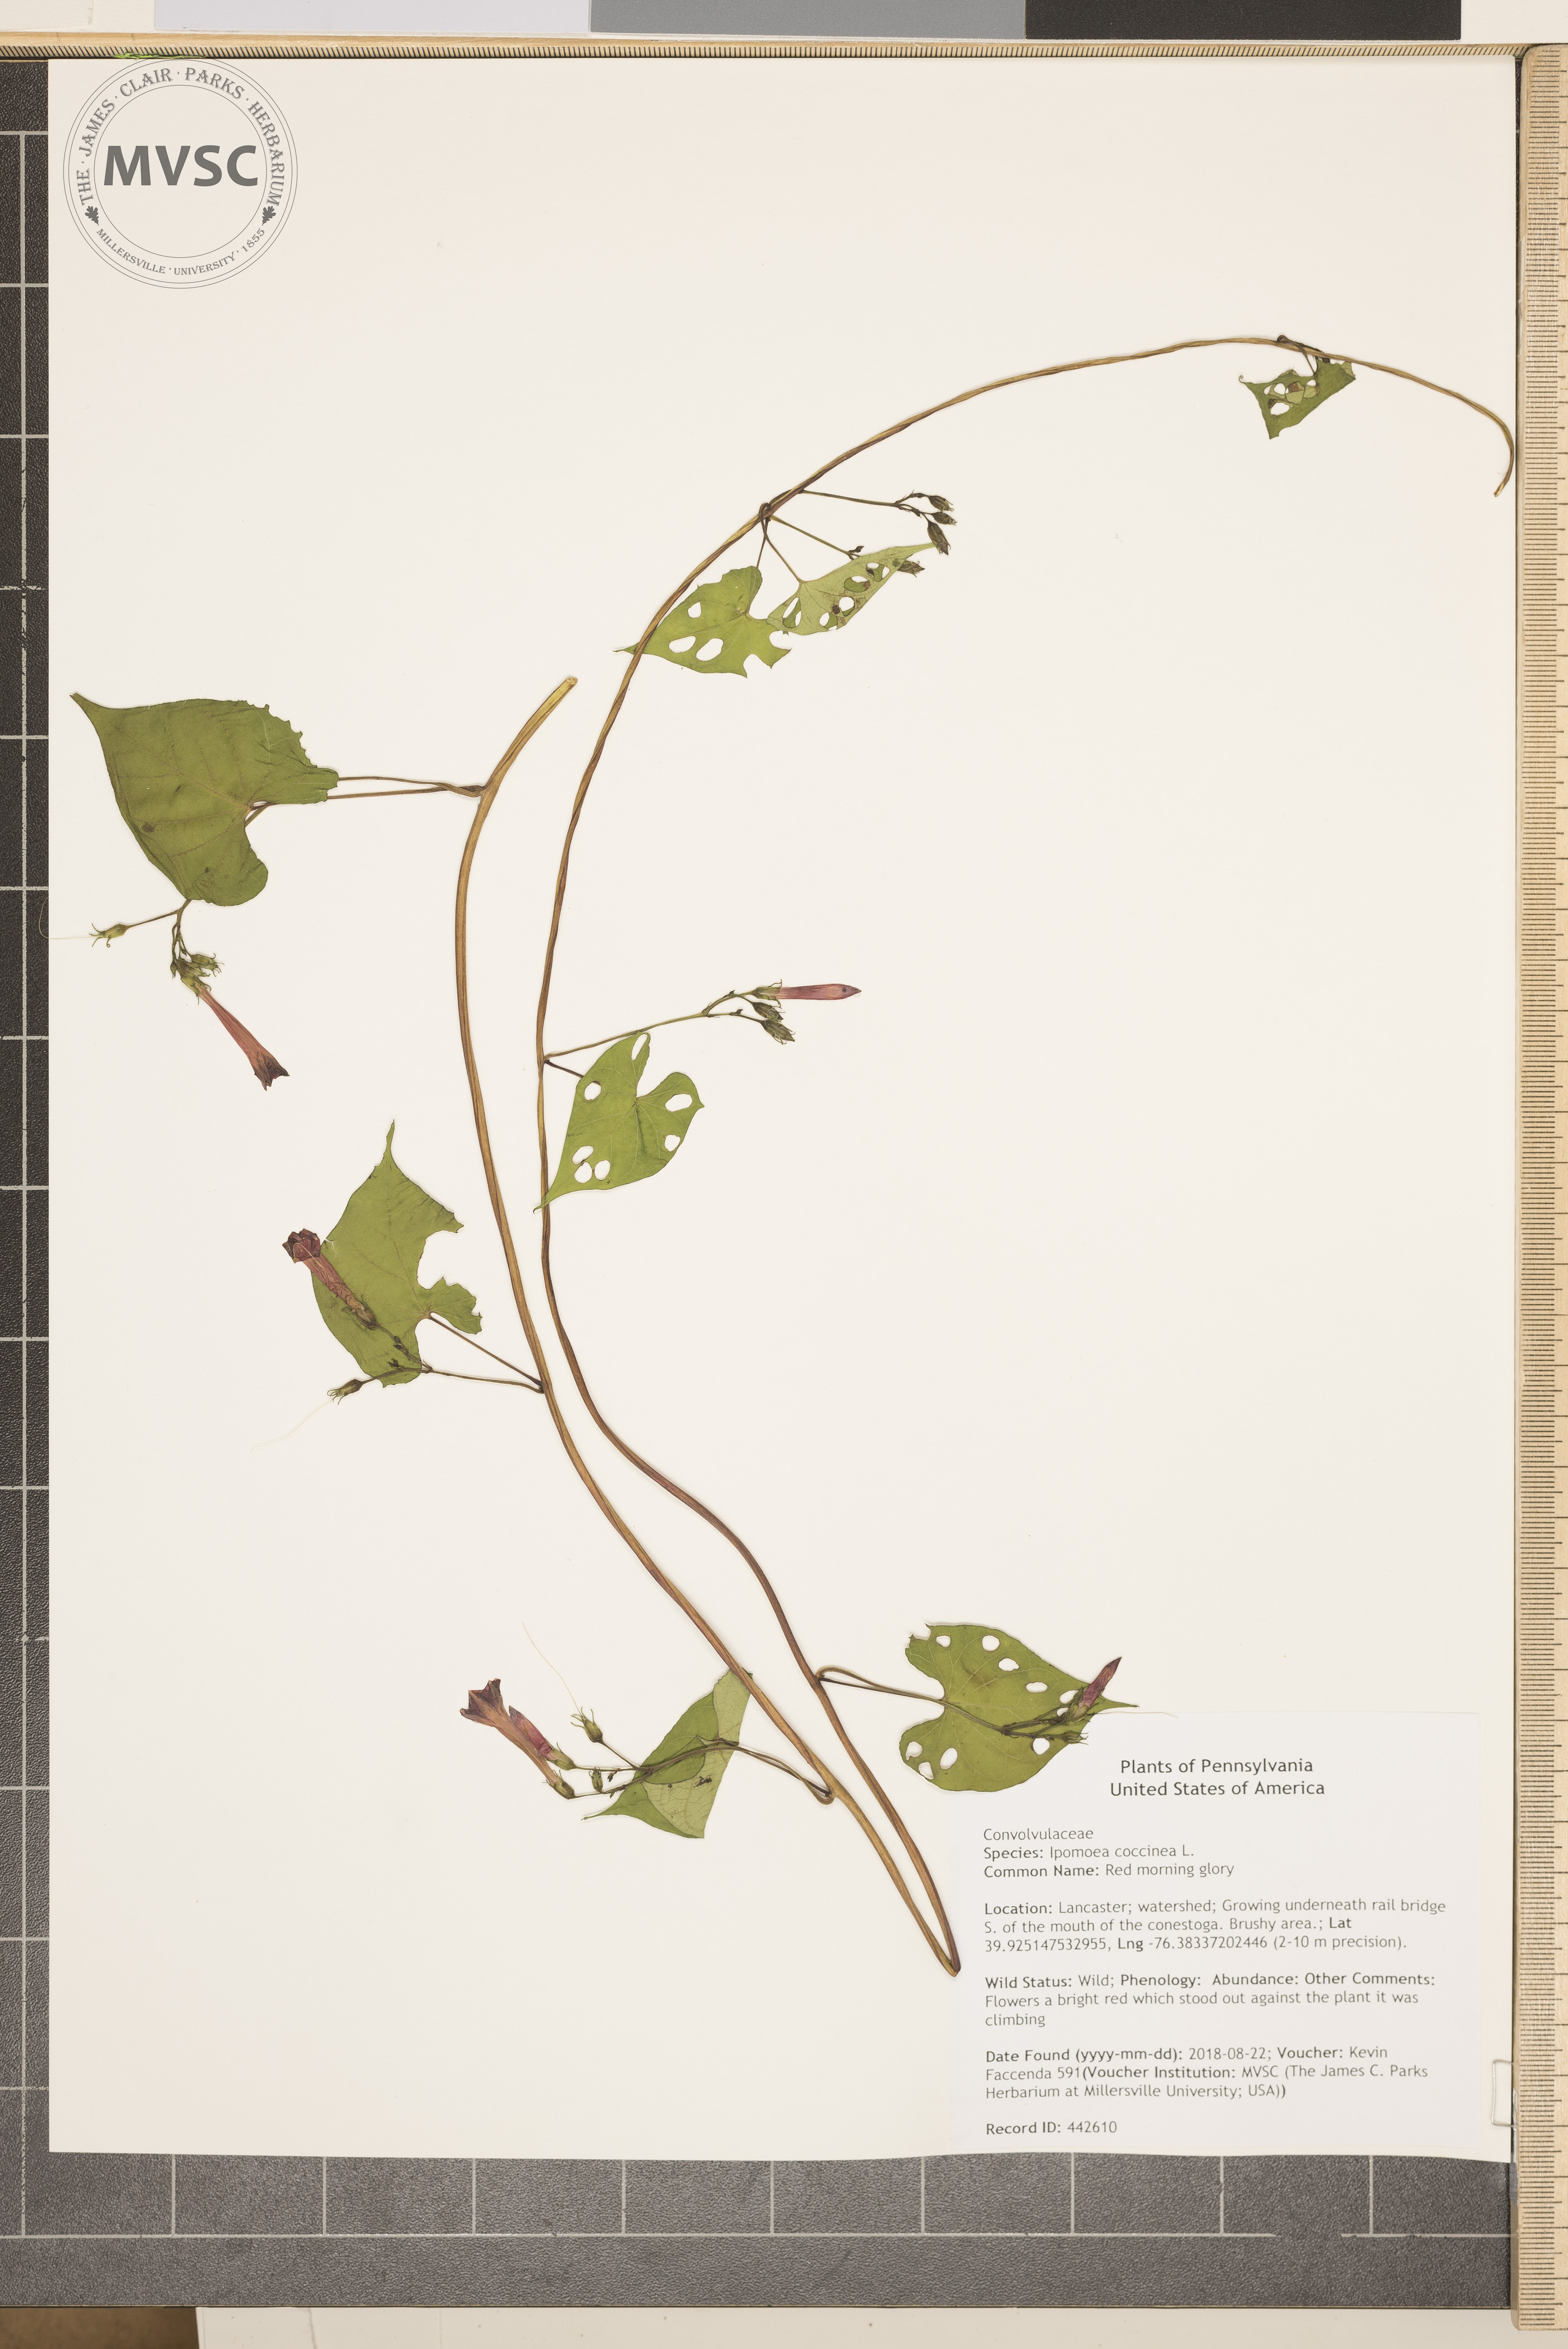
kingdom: Plantae
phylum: Tracheophyta
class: Magnoliopsida
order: Solanales
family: Convolvulaceae
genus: Ipomoea
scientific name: Ipomoea coccinea
